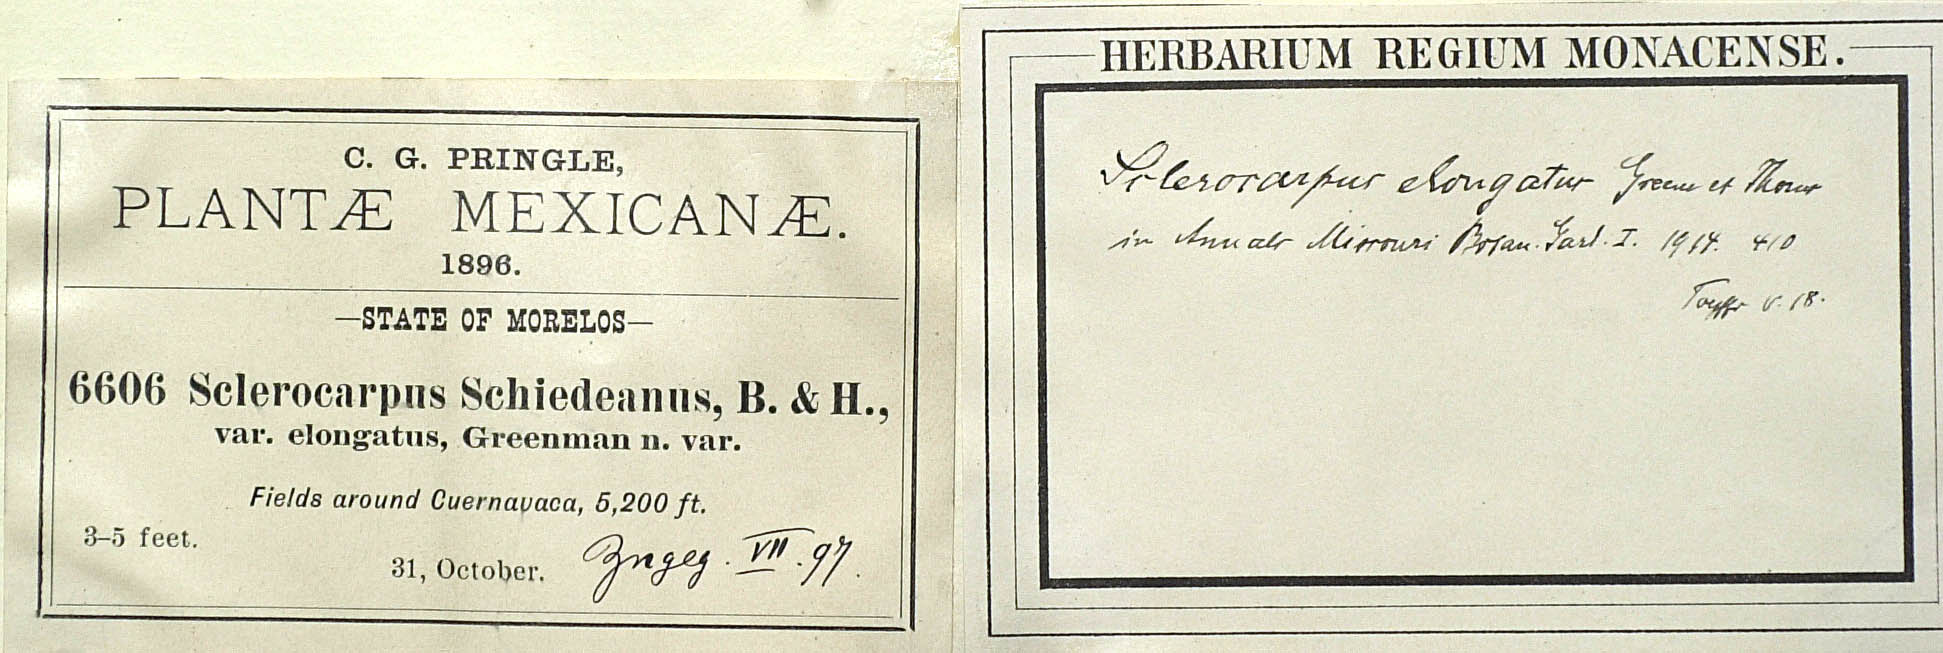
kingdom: Plantae
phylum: Tracheophyta
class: Magnoliopsida
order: Asterales
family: Asteraceae
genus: Aldama
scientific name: Aldama dentata
